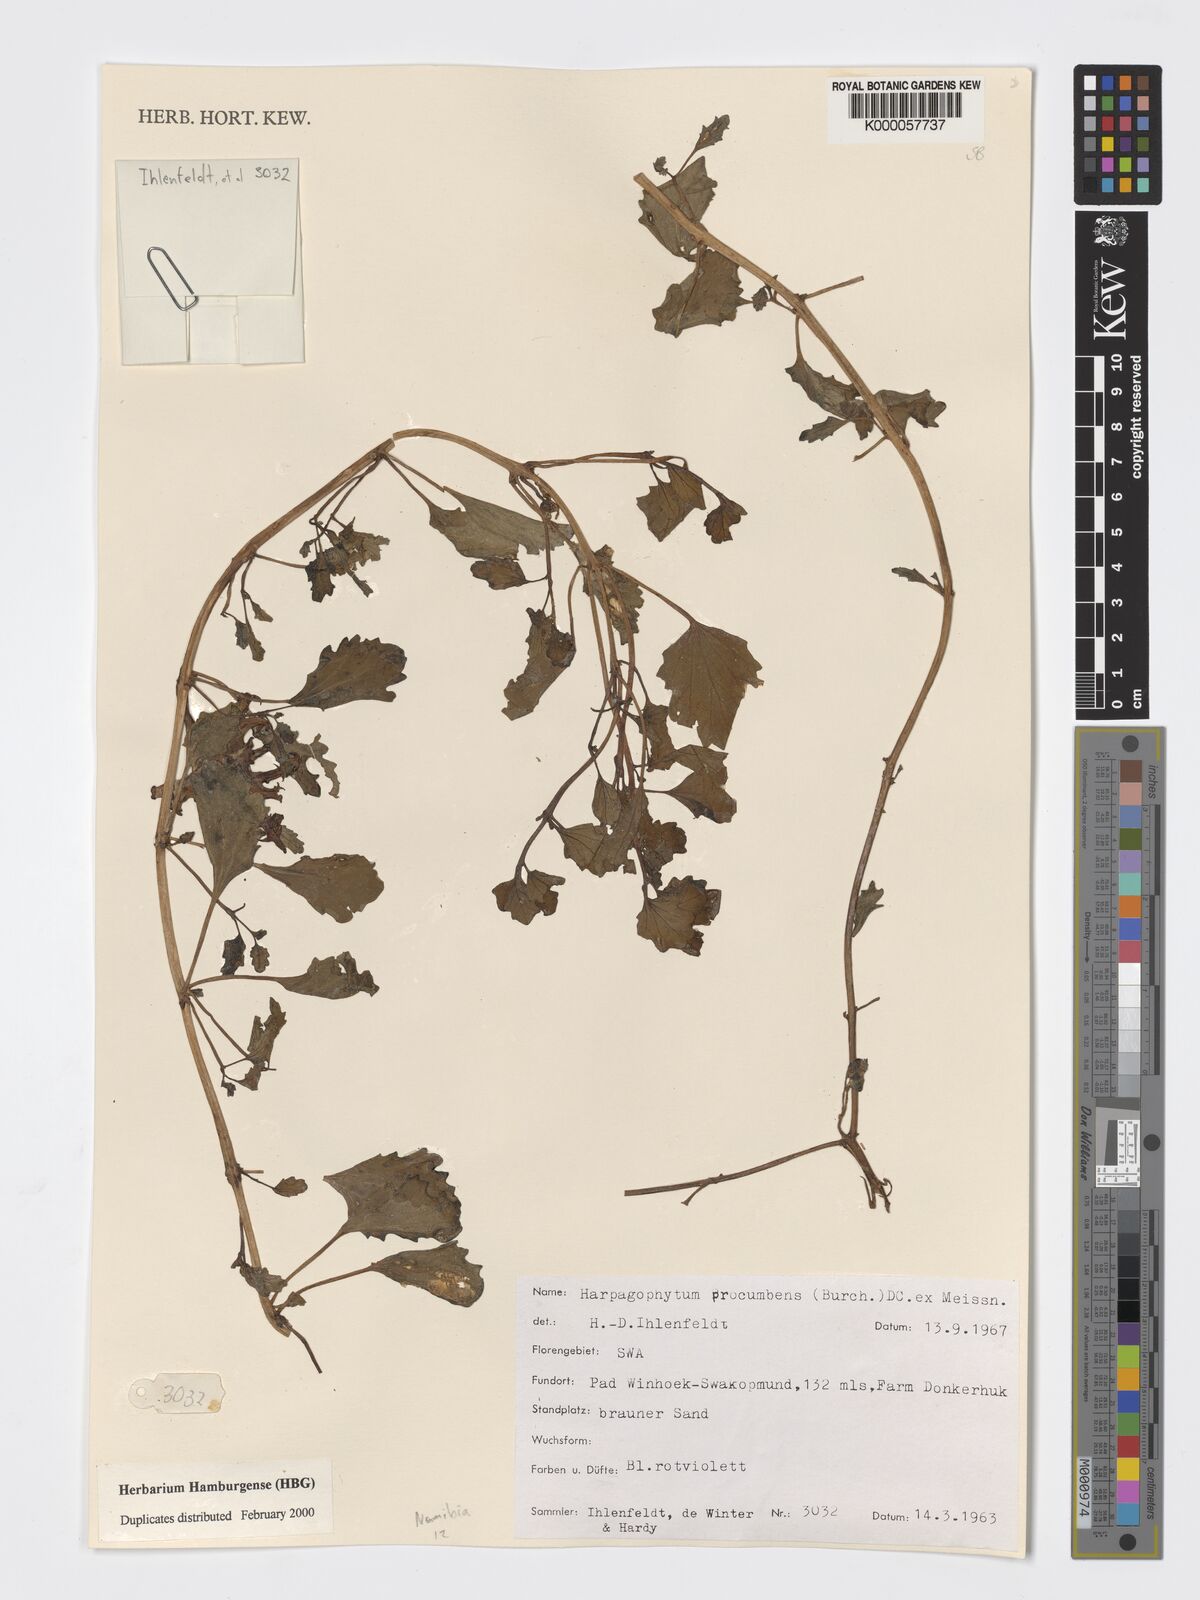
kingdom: Plantae
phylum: Tracheophyta
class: Magnoliopsida
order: Lamiales
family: Pedaliaceae
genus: Harpagophytum
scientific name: Harpagophytum procumbens
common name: Grappleplant
